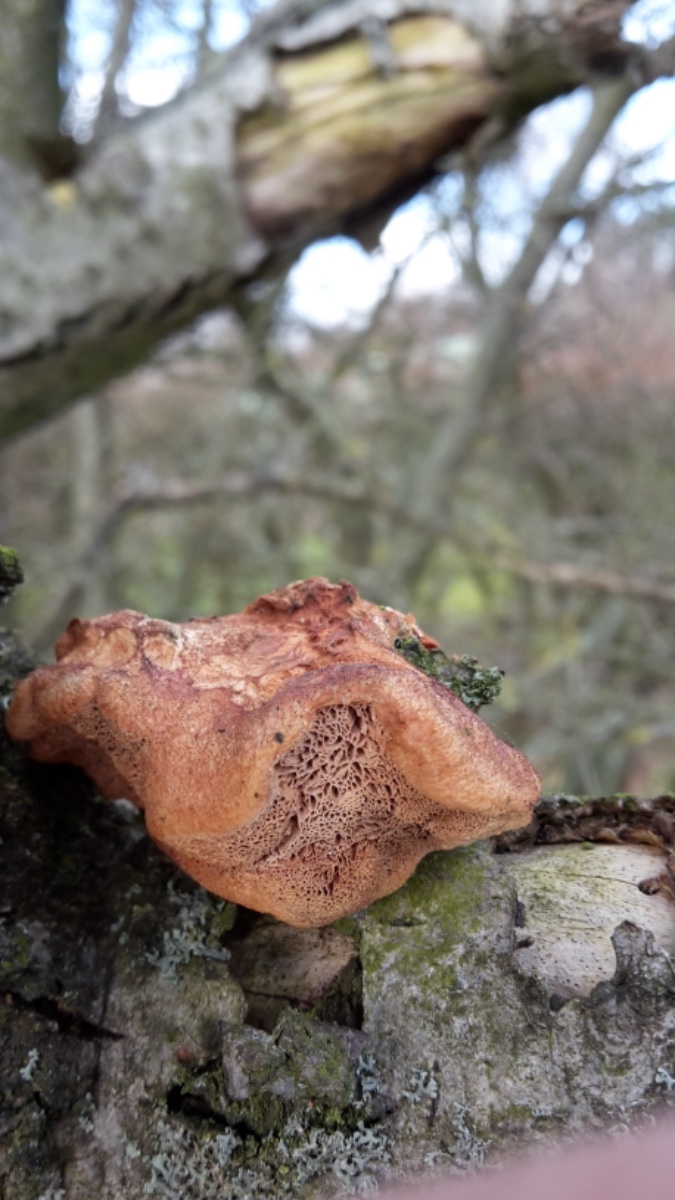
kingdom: Fungi
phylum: Basidiomycota
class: Agaricomycetes
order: Polyporales
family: Phanerochaetaceae
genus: Hapalopilus
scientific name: Hapalopilus rutilans
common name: rødlig okkerporesvamp
